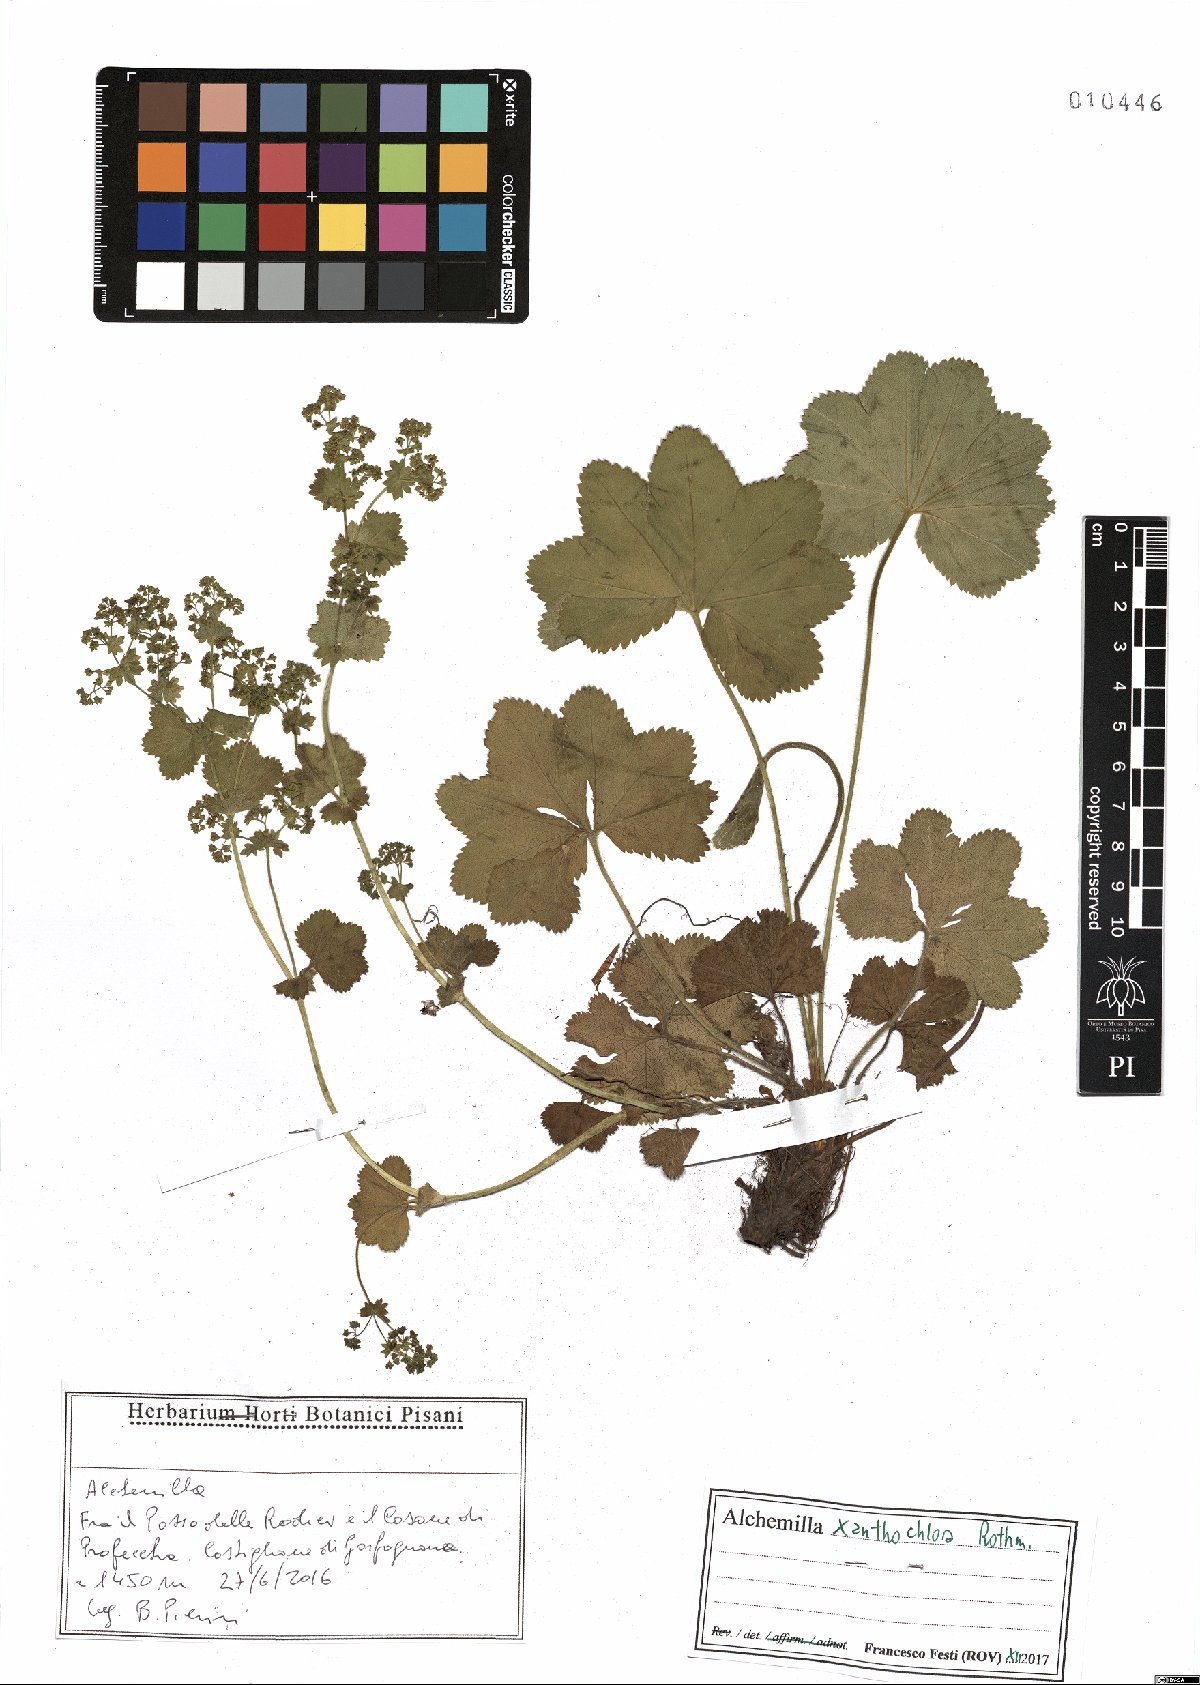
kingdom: Plantae
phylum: Tracheophyta
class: Magnoliopsida
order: Rosales
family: Rosaceae
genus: Alchemilla
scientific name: Alchemilla xanthochlora
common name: Intermediate lady's-mantle
